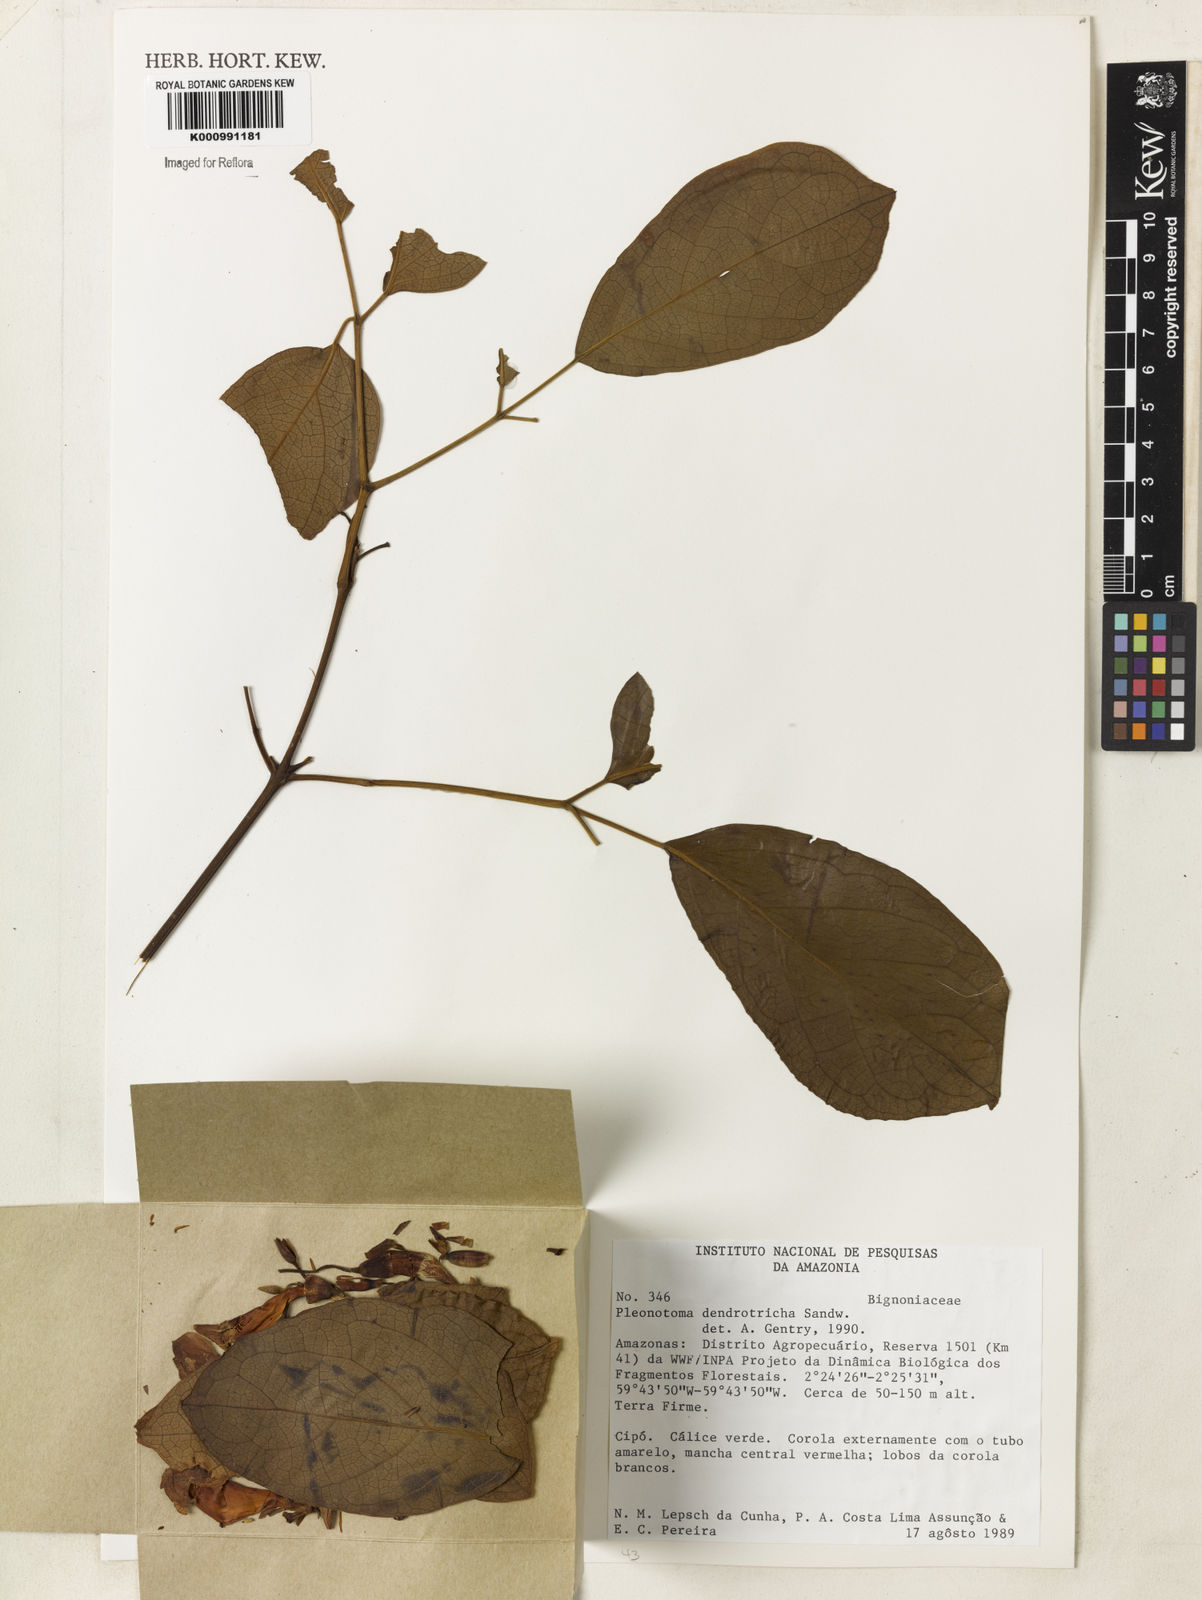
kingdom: Plantae
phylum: Tracheophyta
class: Magnoliopsida
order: Lamiales
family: Bignoniaceae
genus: Pleonotoma
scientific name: Pleonotoma dendrotricha
